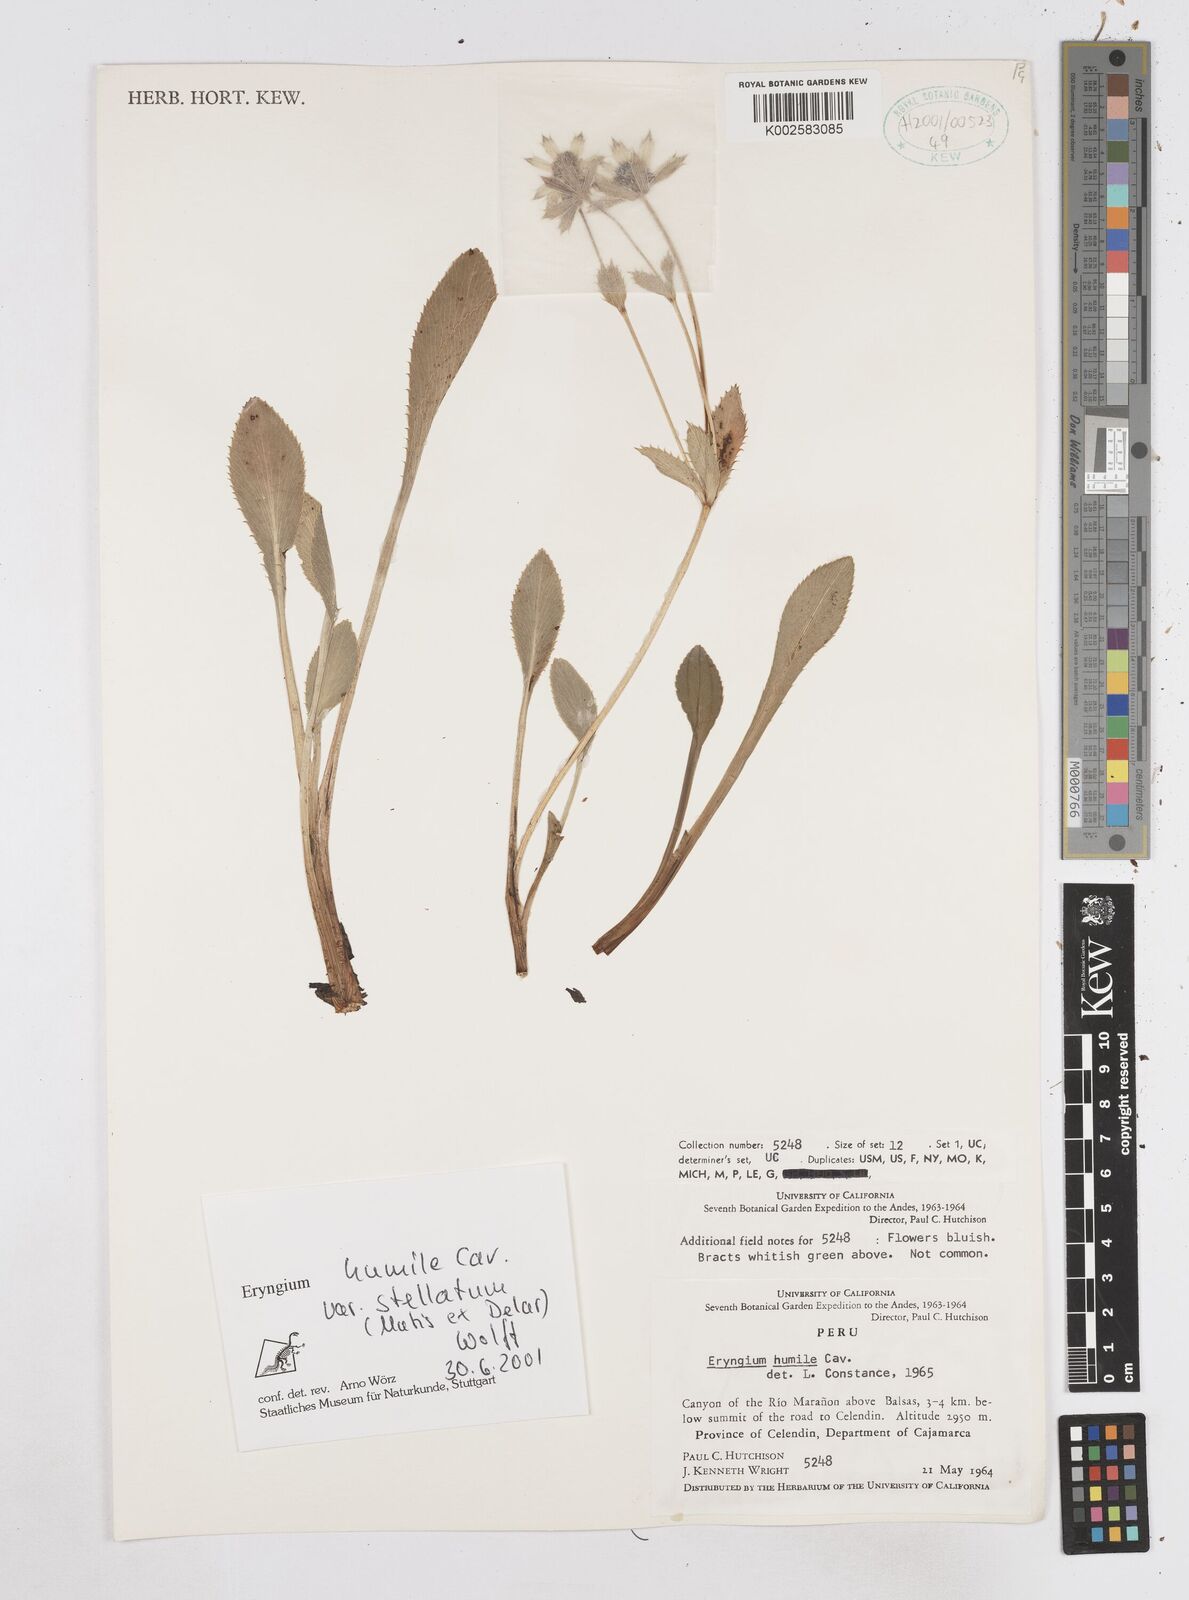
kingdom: Plantae
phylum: Tracheophyta
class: Magnoliopsida
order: Apiales
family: Apiaceae
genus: Eryngium
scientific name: Eryngium humile
